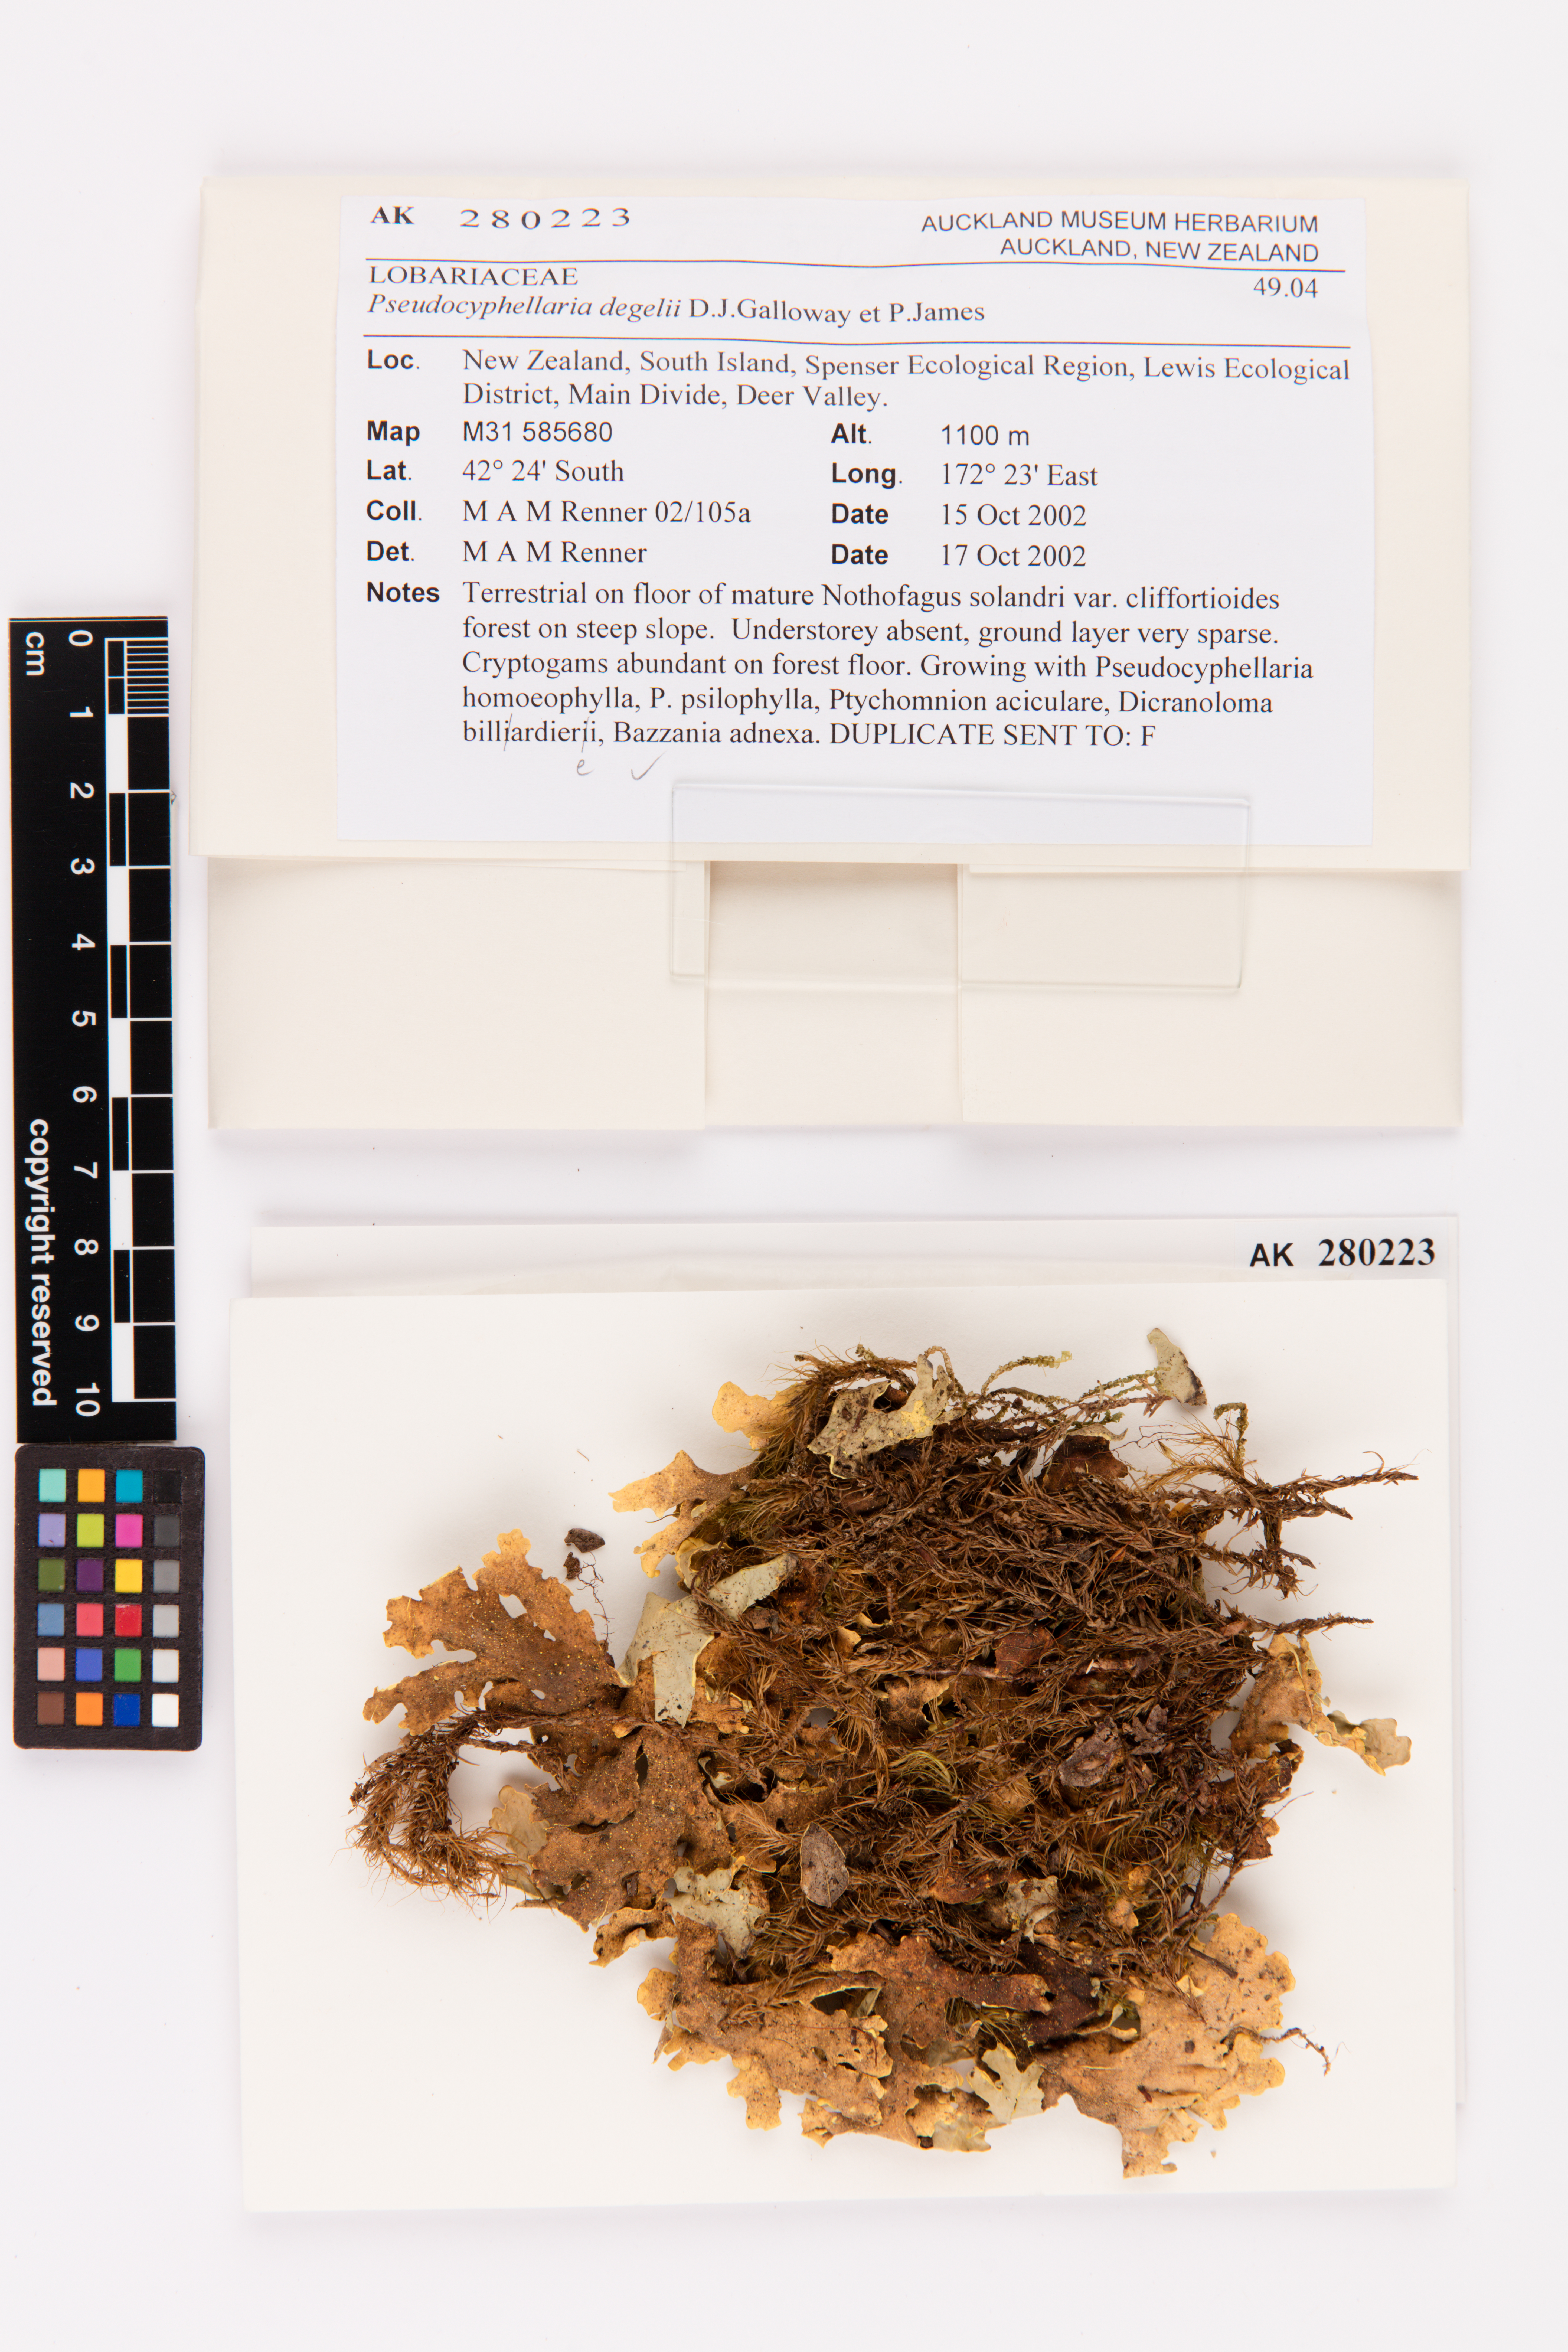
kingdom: Fungi
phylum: Ascomycota
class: Lecanoromycetes
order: Peltigerales
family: Lobariaceae
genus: Podostictina
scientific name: Podostictina degelii
